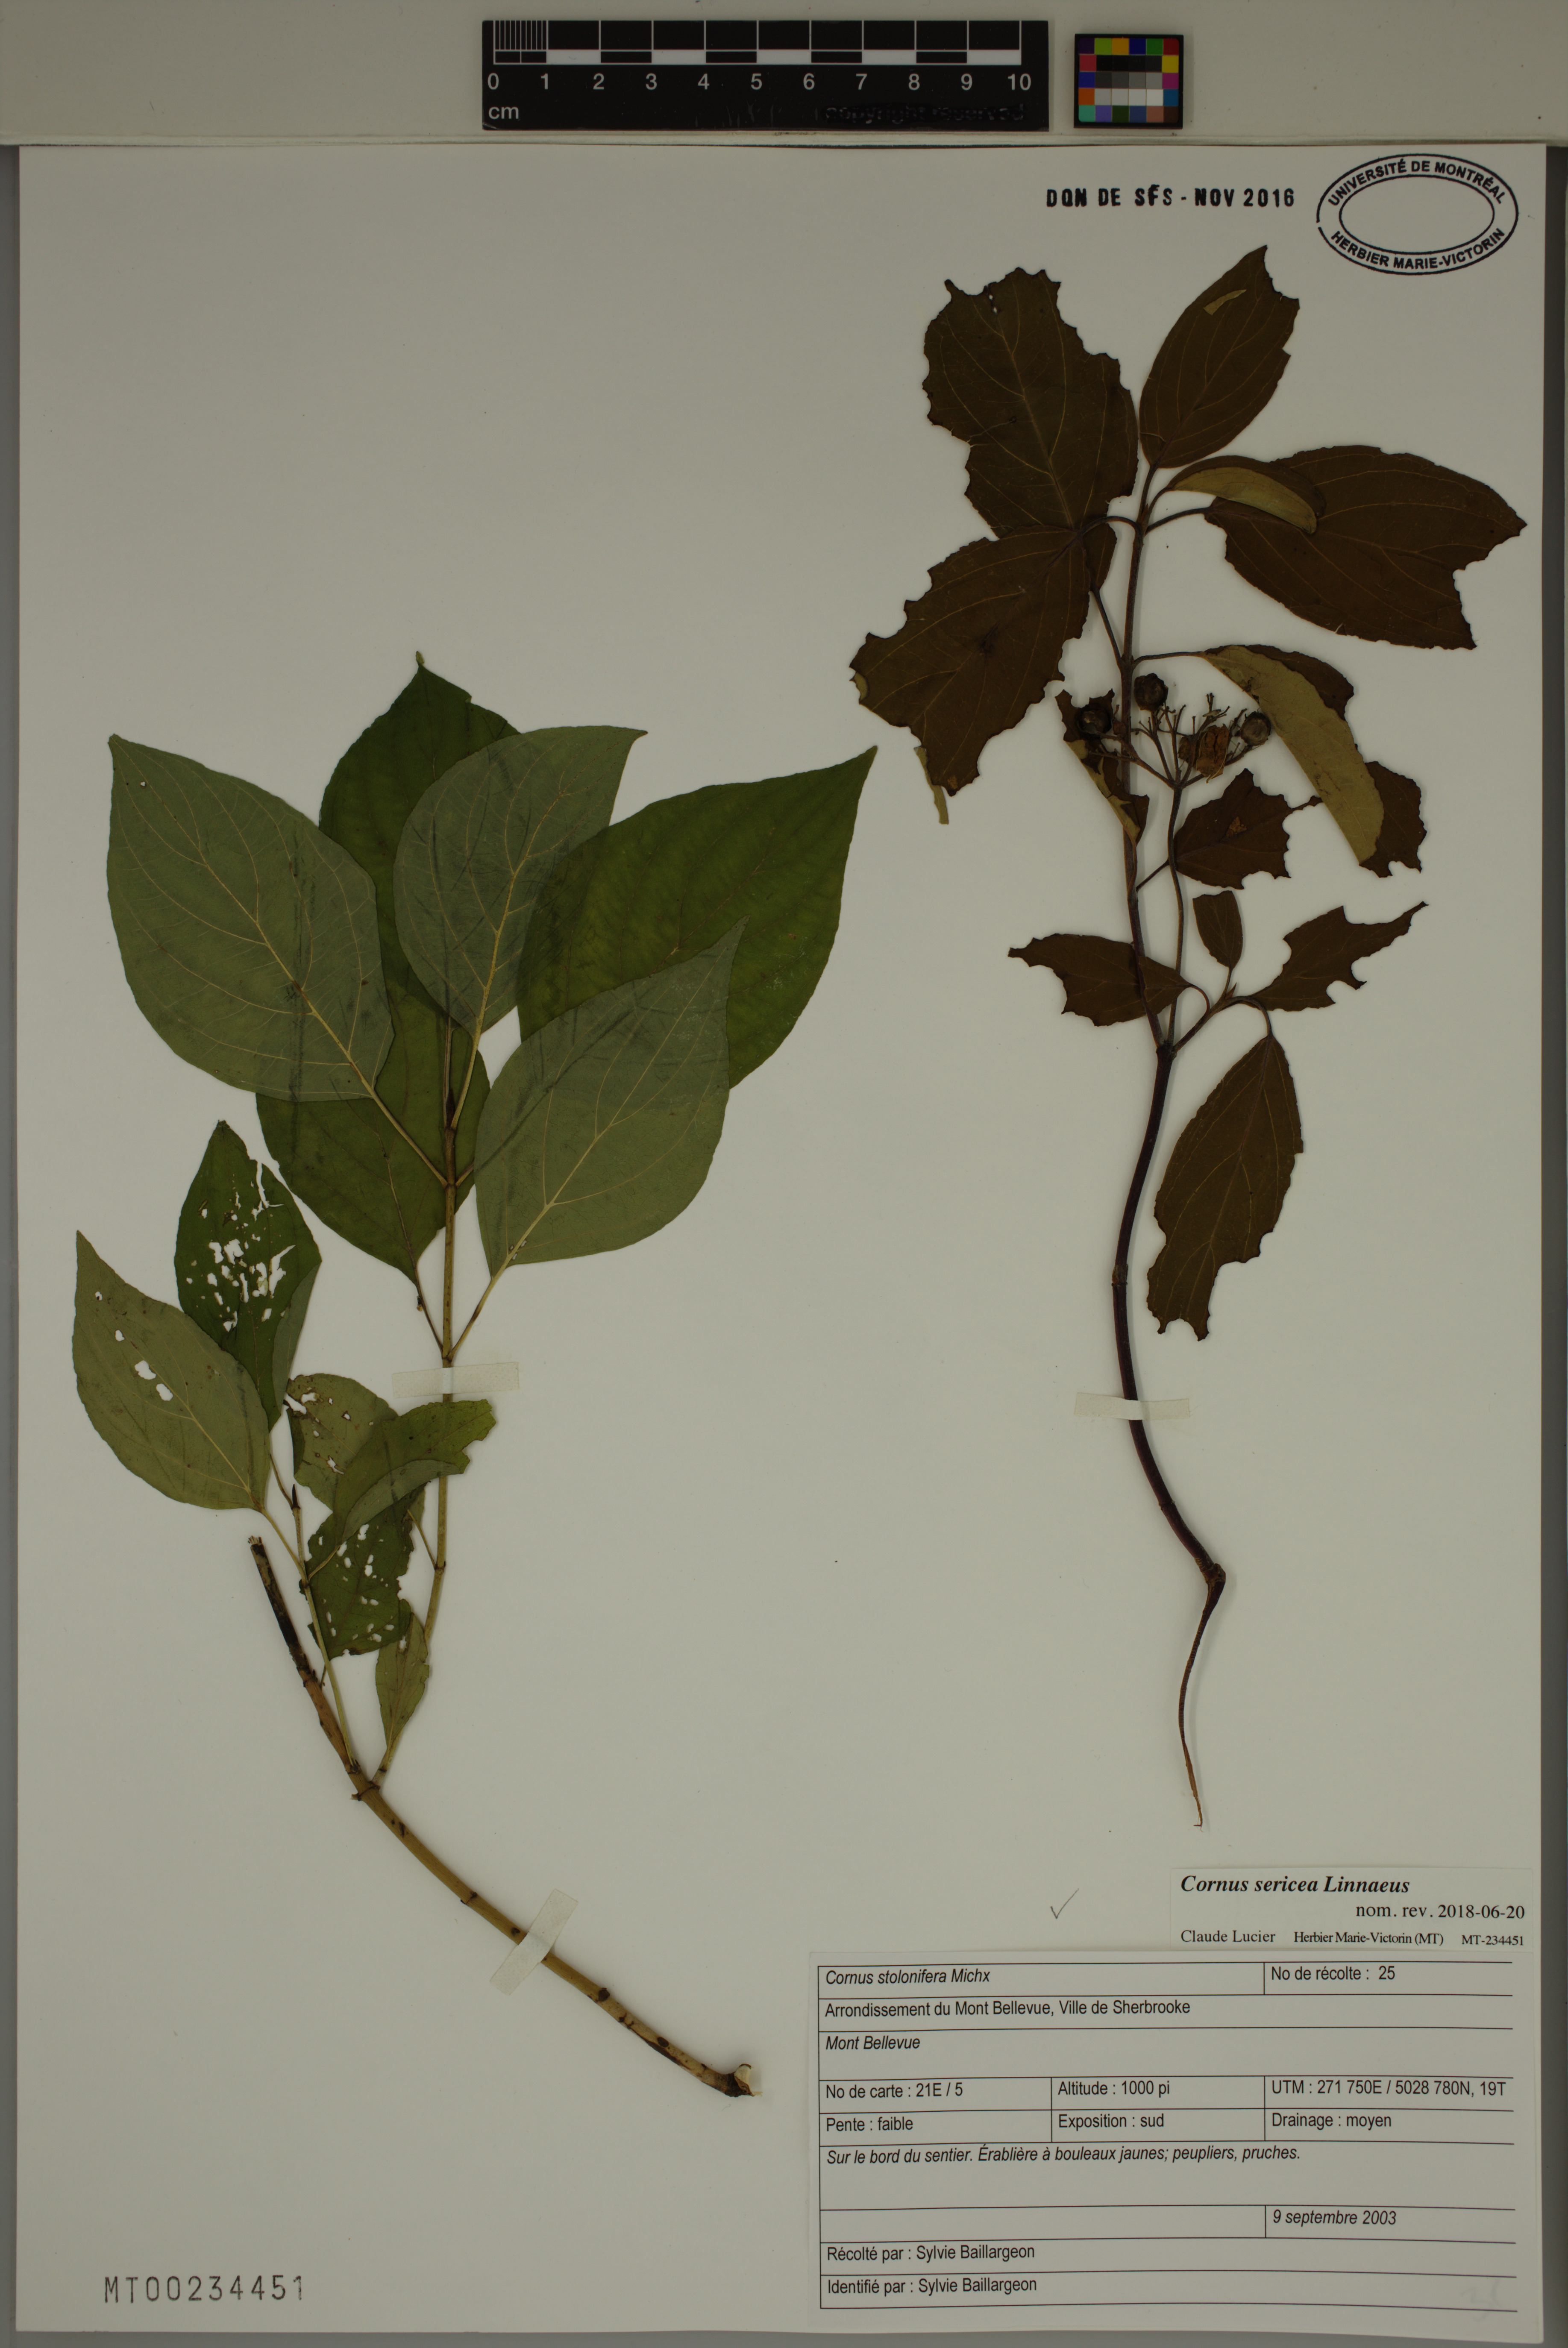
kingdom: Plantae
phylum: Tracheophyta
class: Magnoliopsida
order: Cornales
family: Cornaceae
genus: Cornus
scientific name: Cornus sericea
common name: Red-osier dogwood
